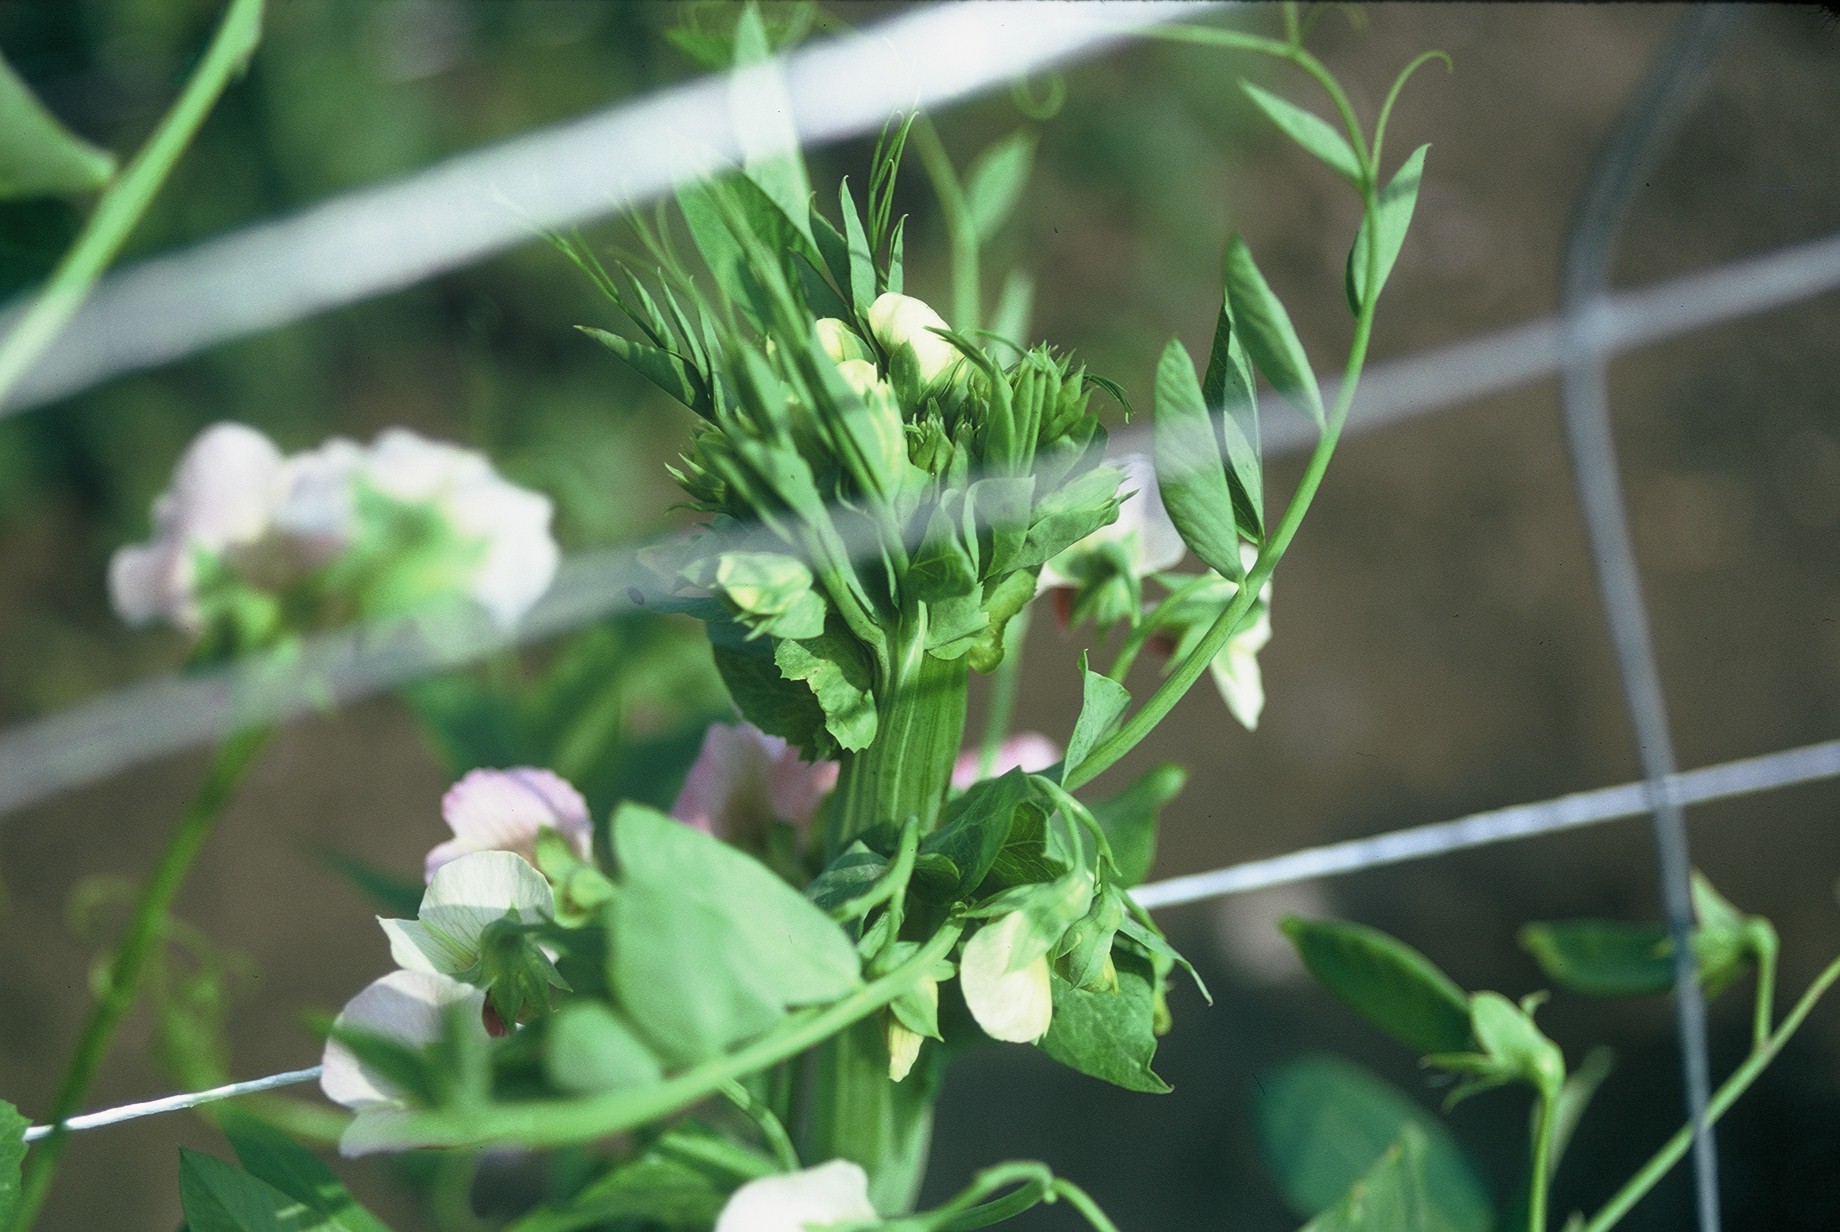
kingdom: Plantae
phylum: Tracheophyta
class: Magnoliopsida
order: Fabales
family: Fabaceae
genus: Lathyrus
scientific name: Lathyrus oleraceus
